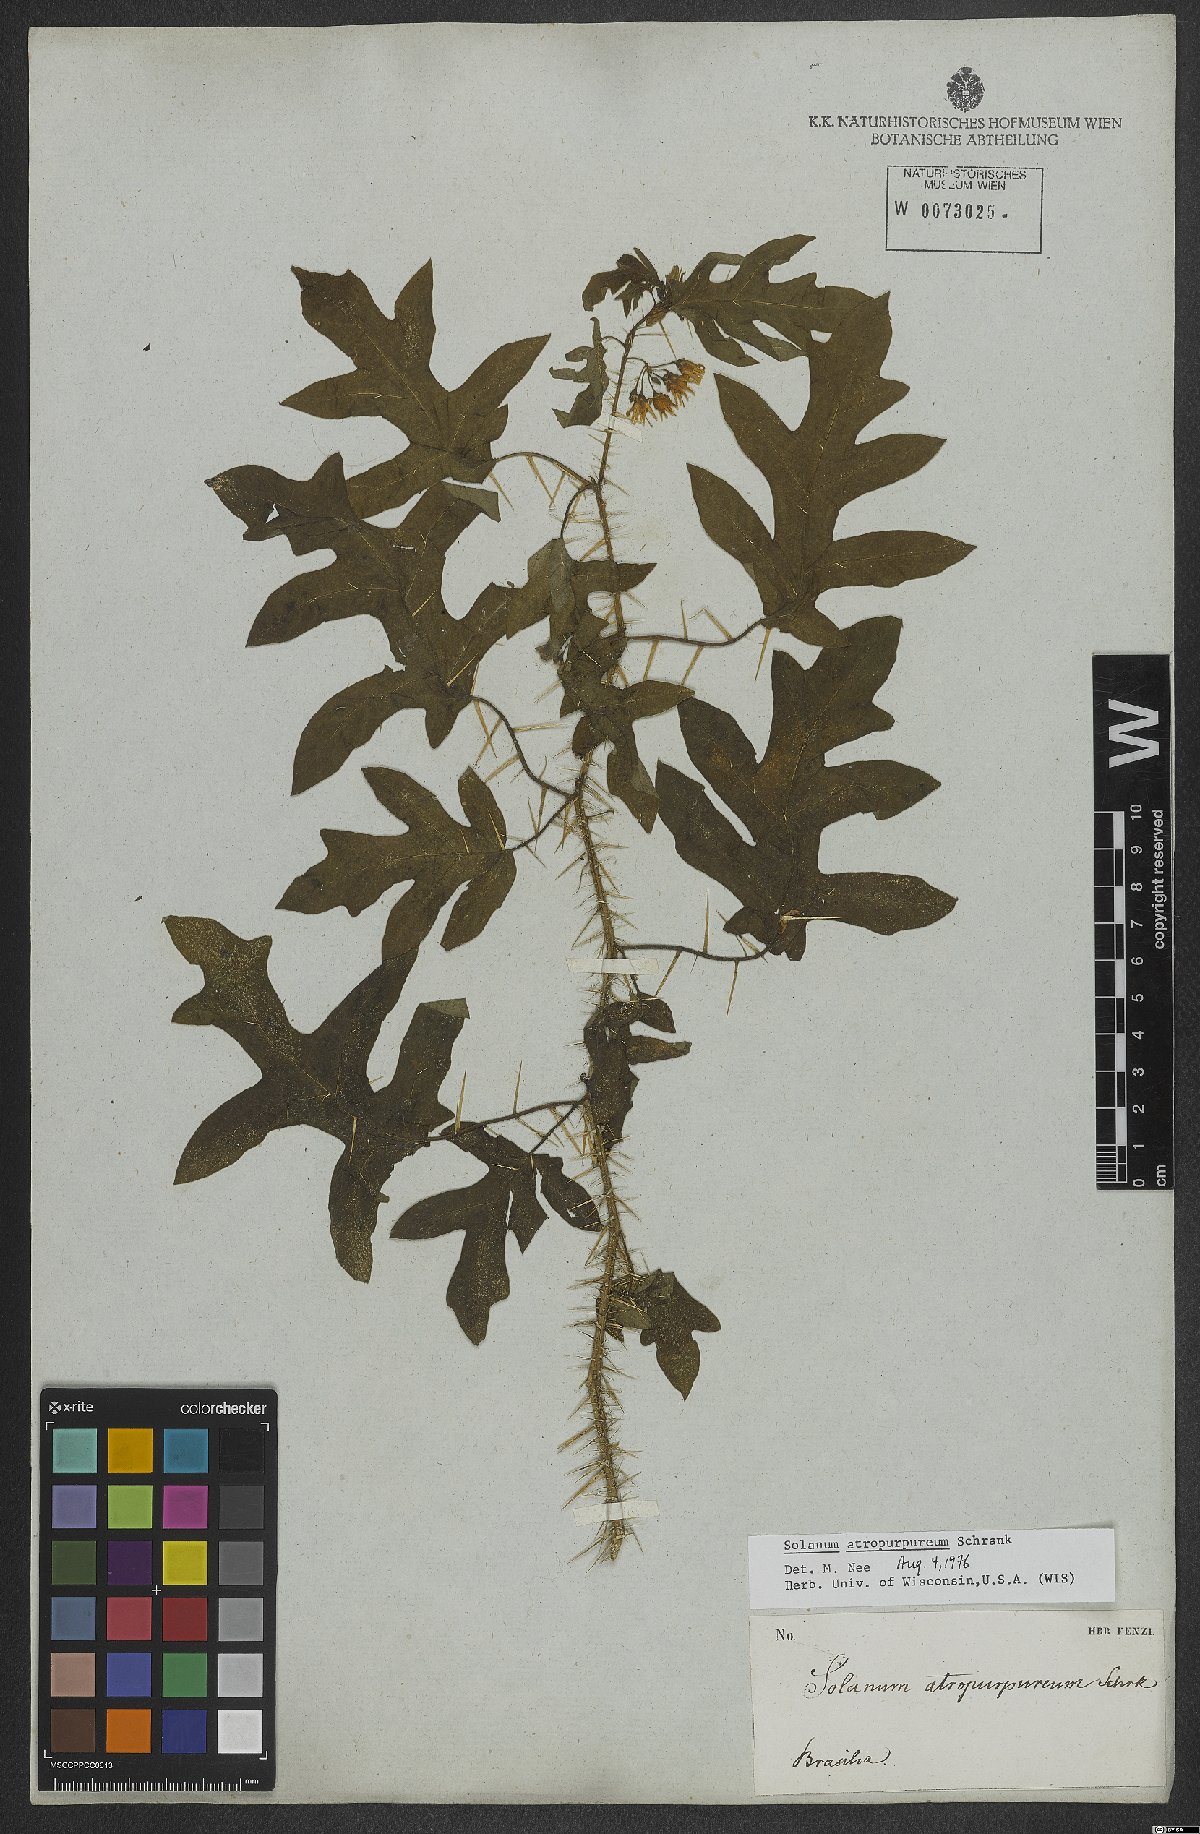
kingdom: Plantae
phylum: Tracheophyta
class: Magnoliopsida
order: Solanales
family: Solanaceae
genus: Solanum
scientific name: Solanum atropurpureum
